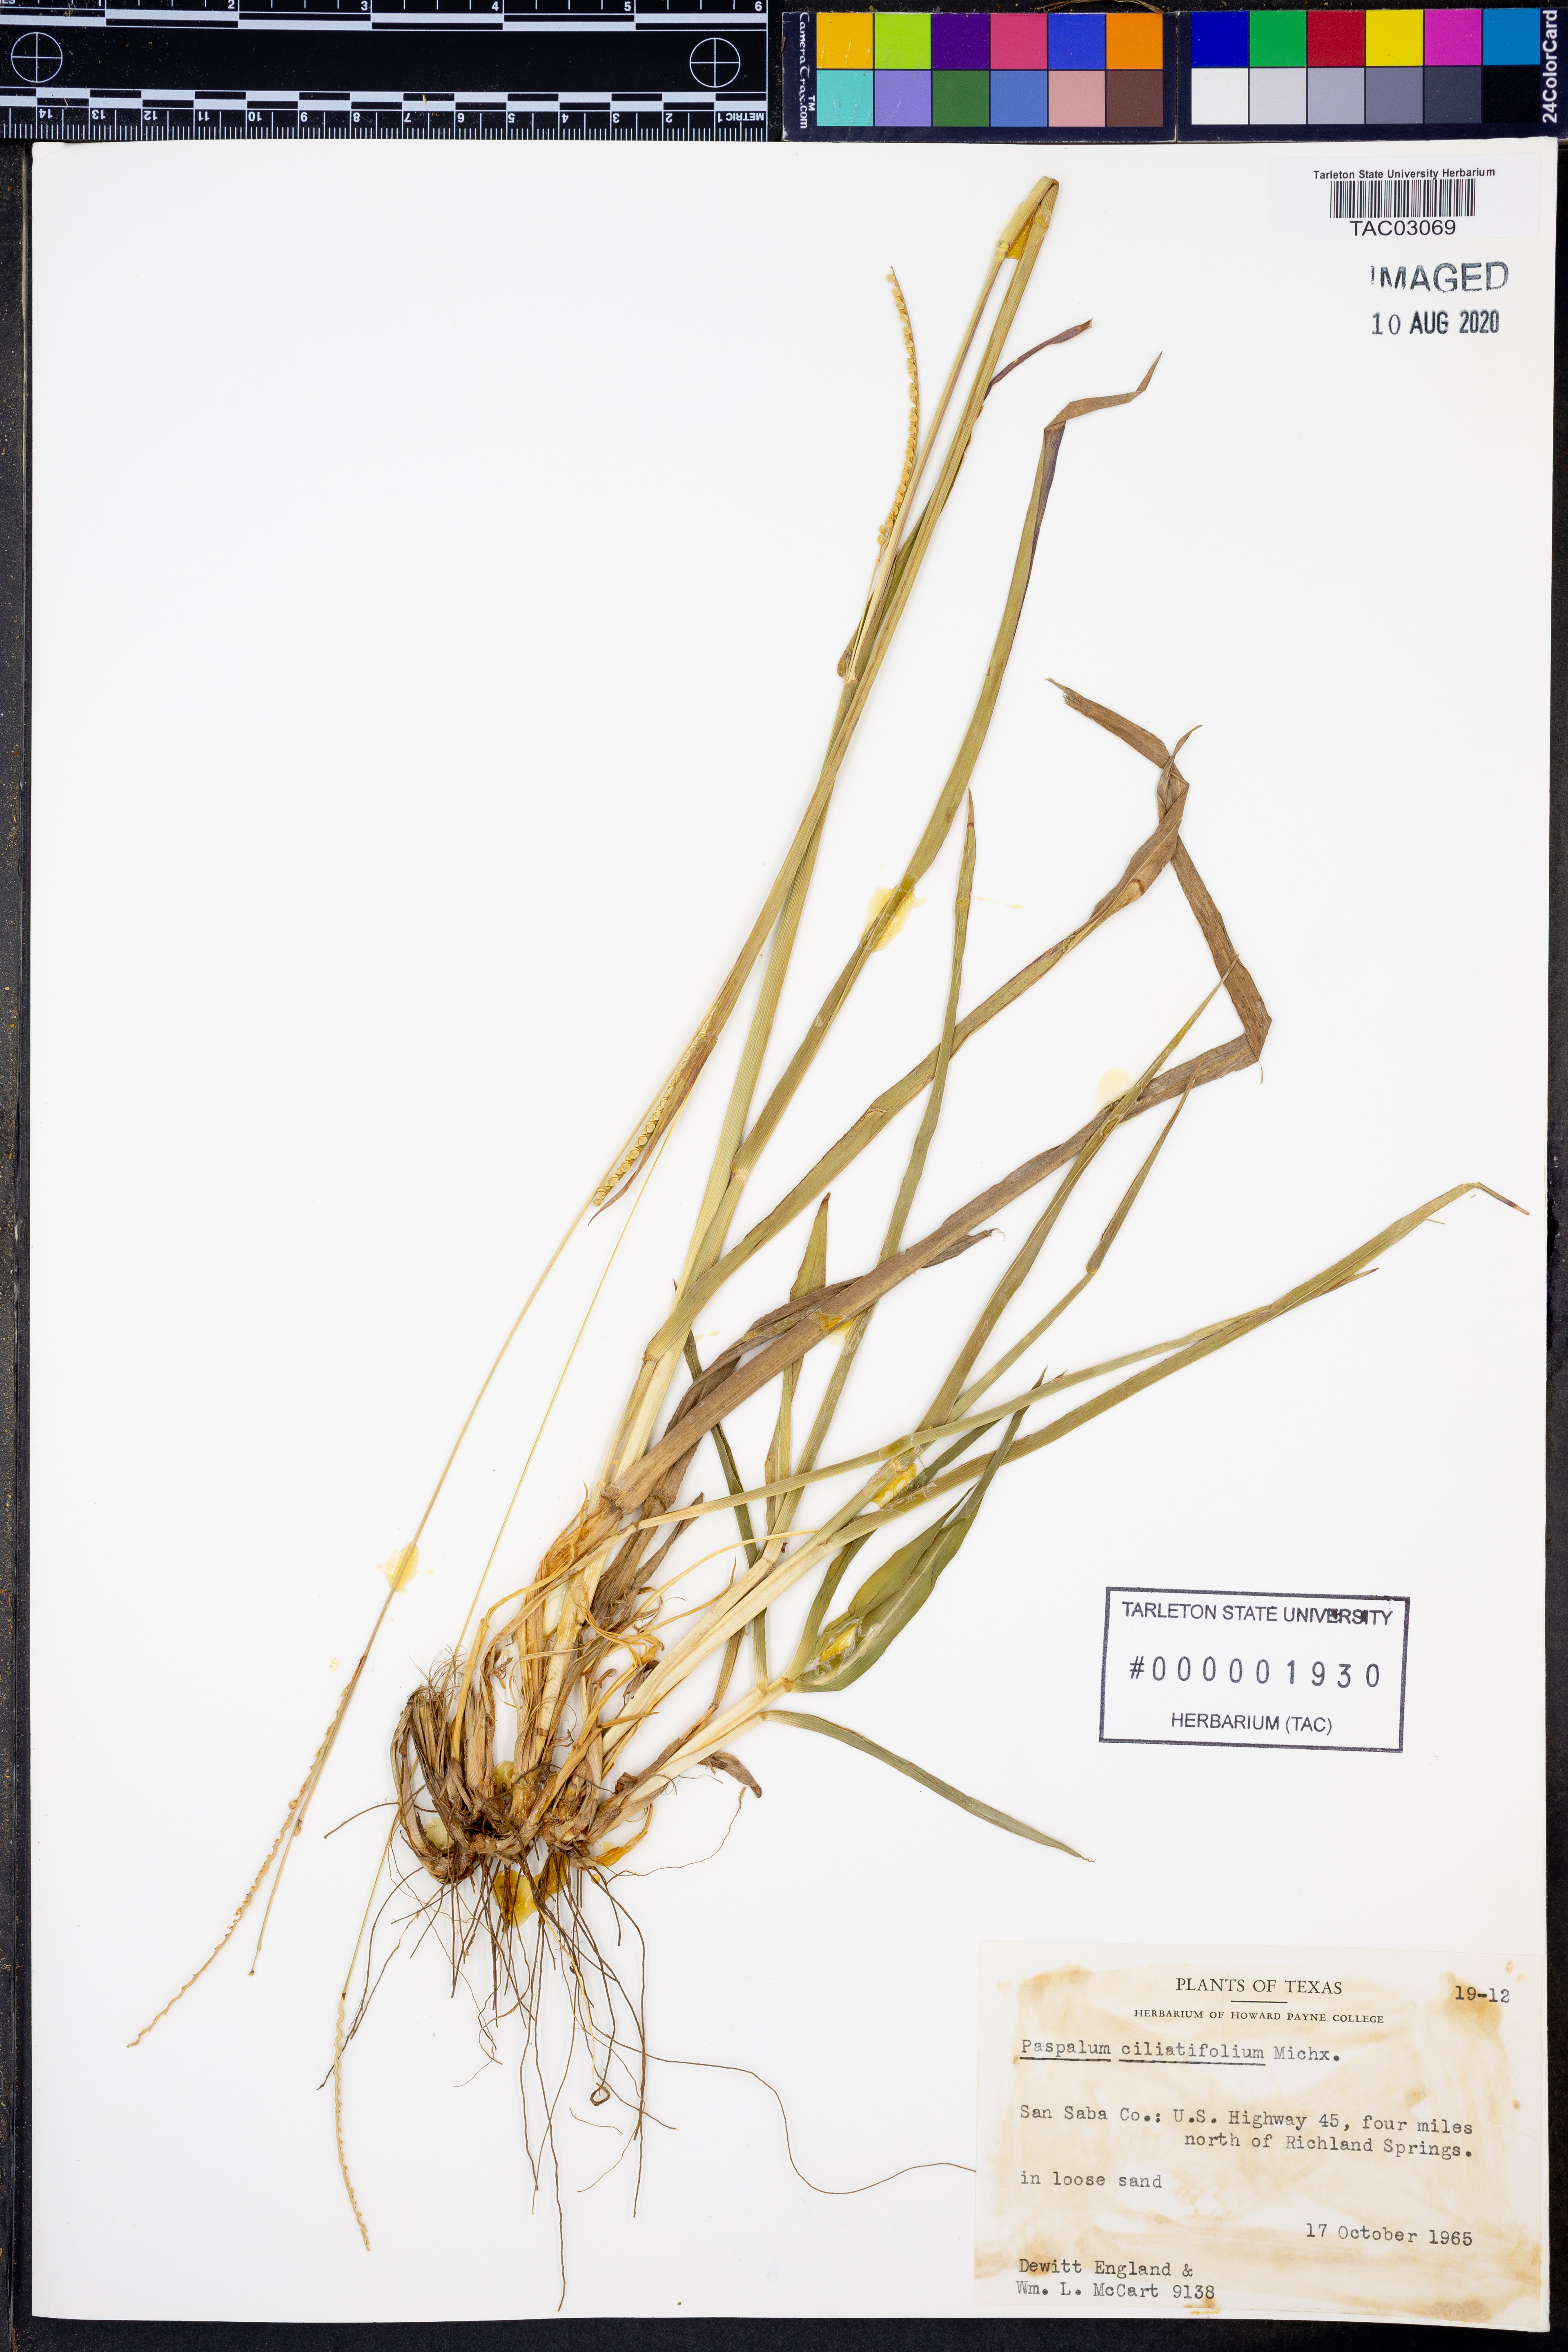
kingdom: Plantae
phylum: Tracheophyta
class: Liliopsida
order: Poales
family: Poaceae
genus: Paspalum
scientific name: Paspalum setaceum
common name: Slender paspalum
